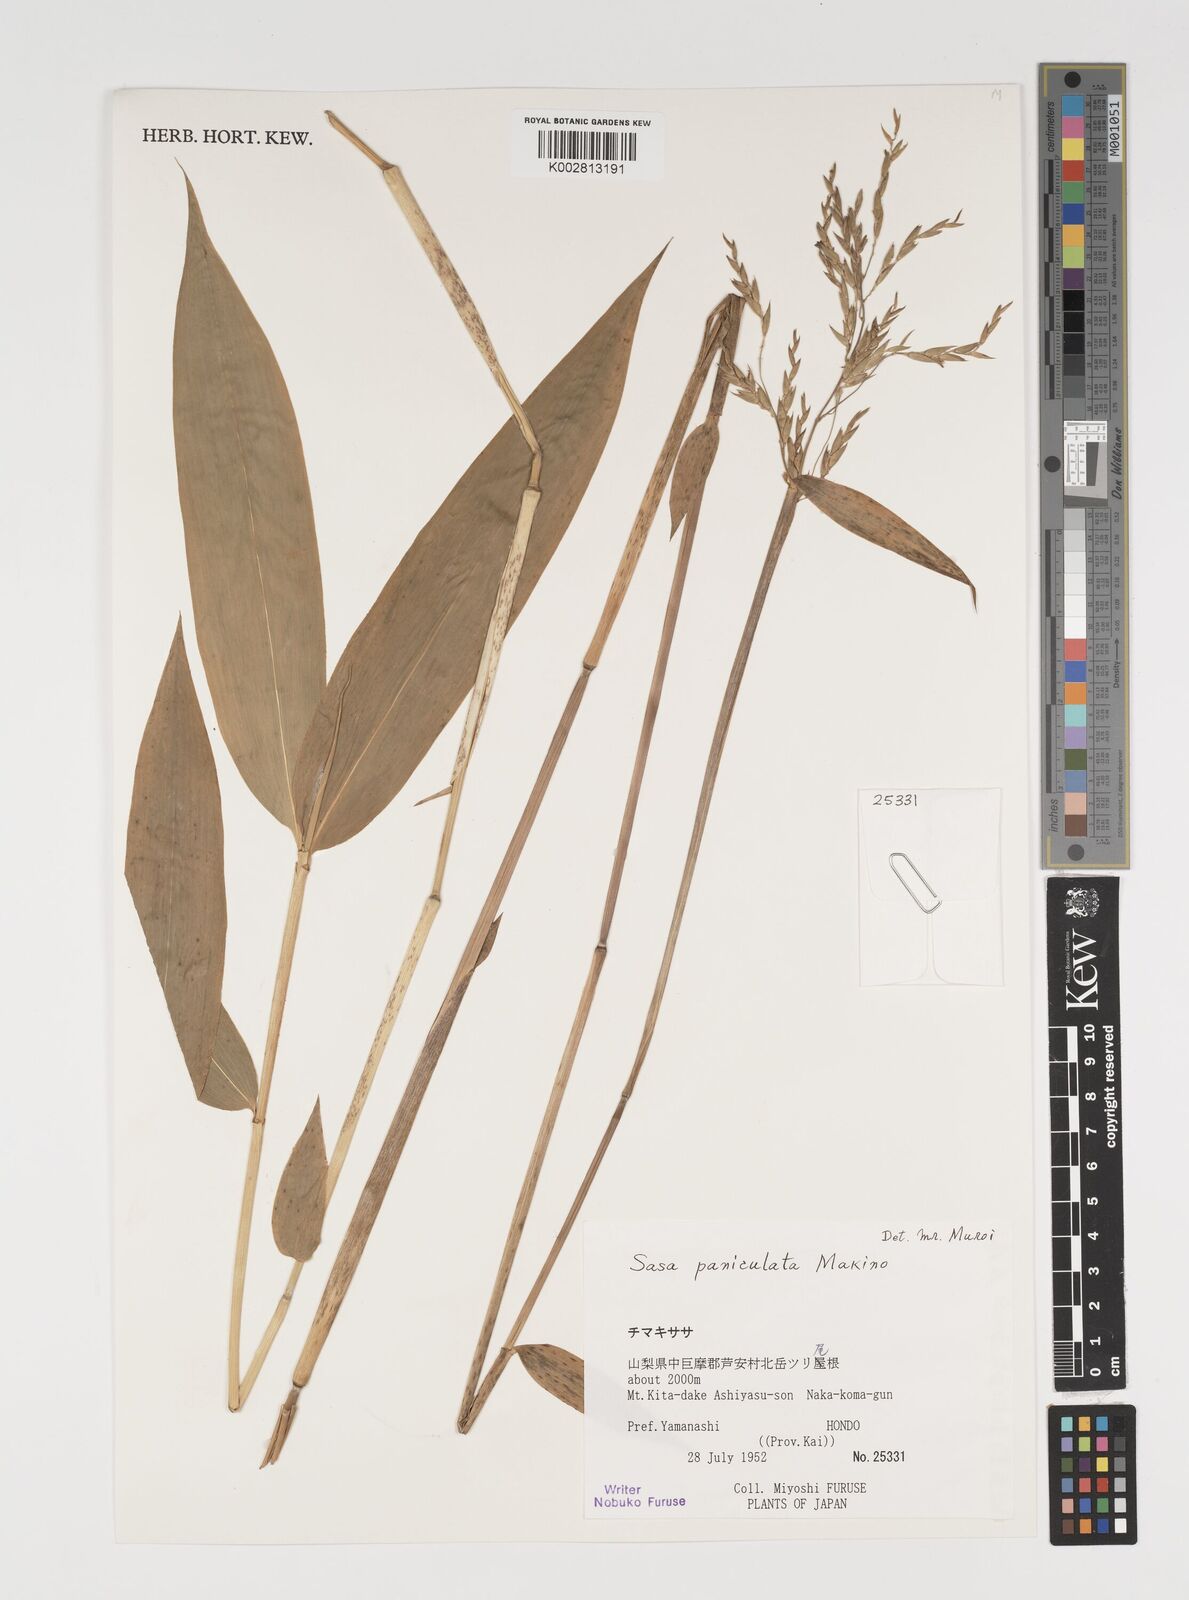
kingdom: Plantae
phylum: Tracheophyta
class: Liliopsida
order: Poales
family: Poaceae
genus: Sasa
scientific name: Sasa senanensis
